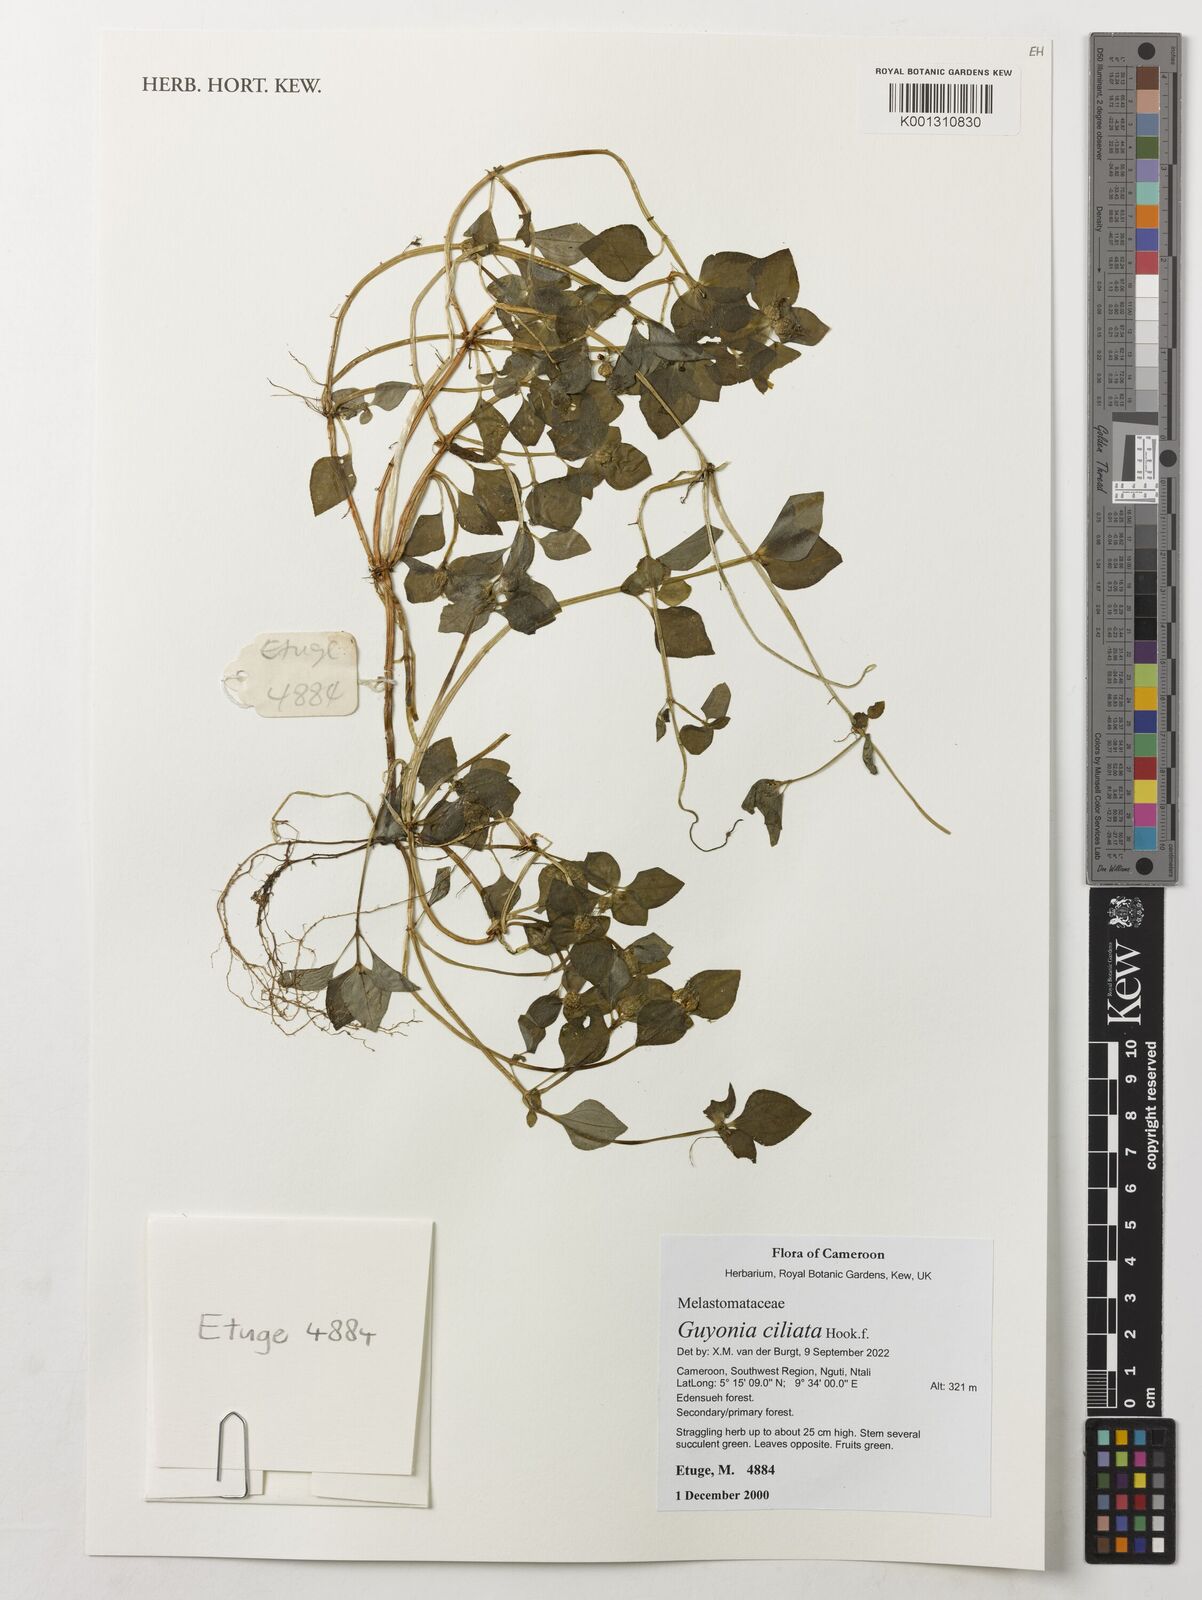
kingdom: Plantae
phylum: Tracheophyta
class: Magnoliopsida
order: Myrtales
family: Melastomataceae
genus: Guyonia
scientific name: Guyonia ciliata
